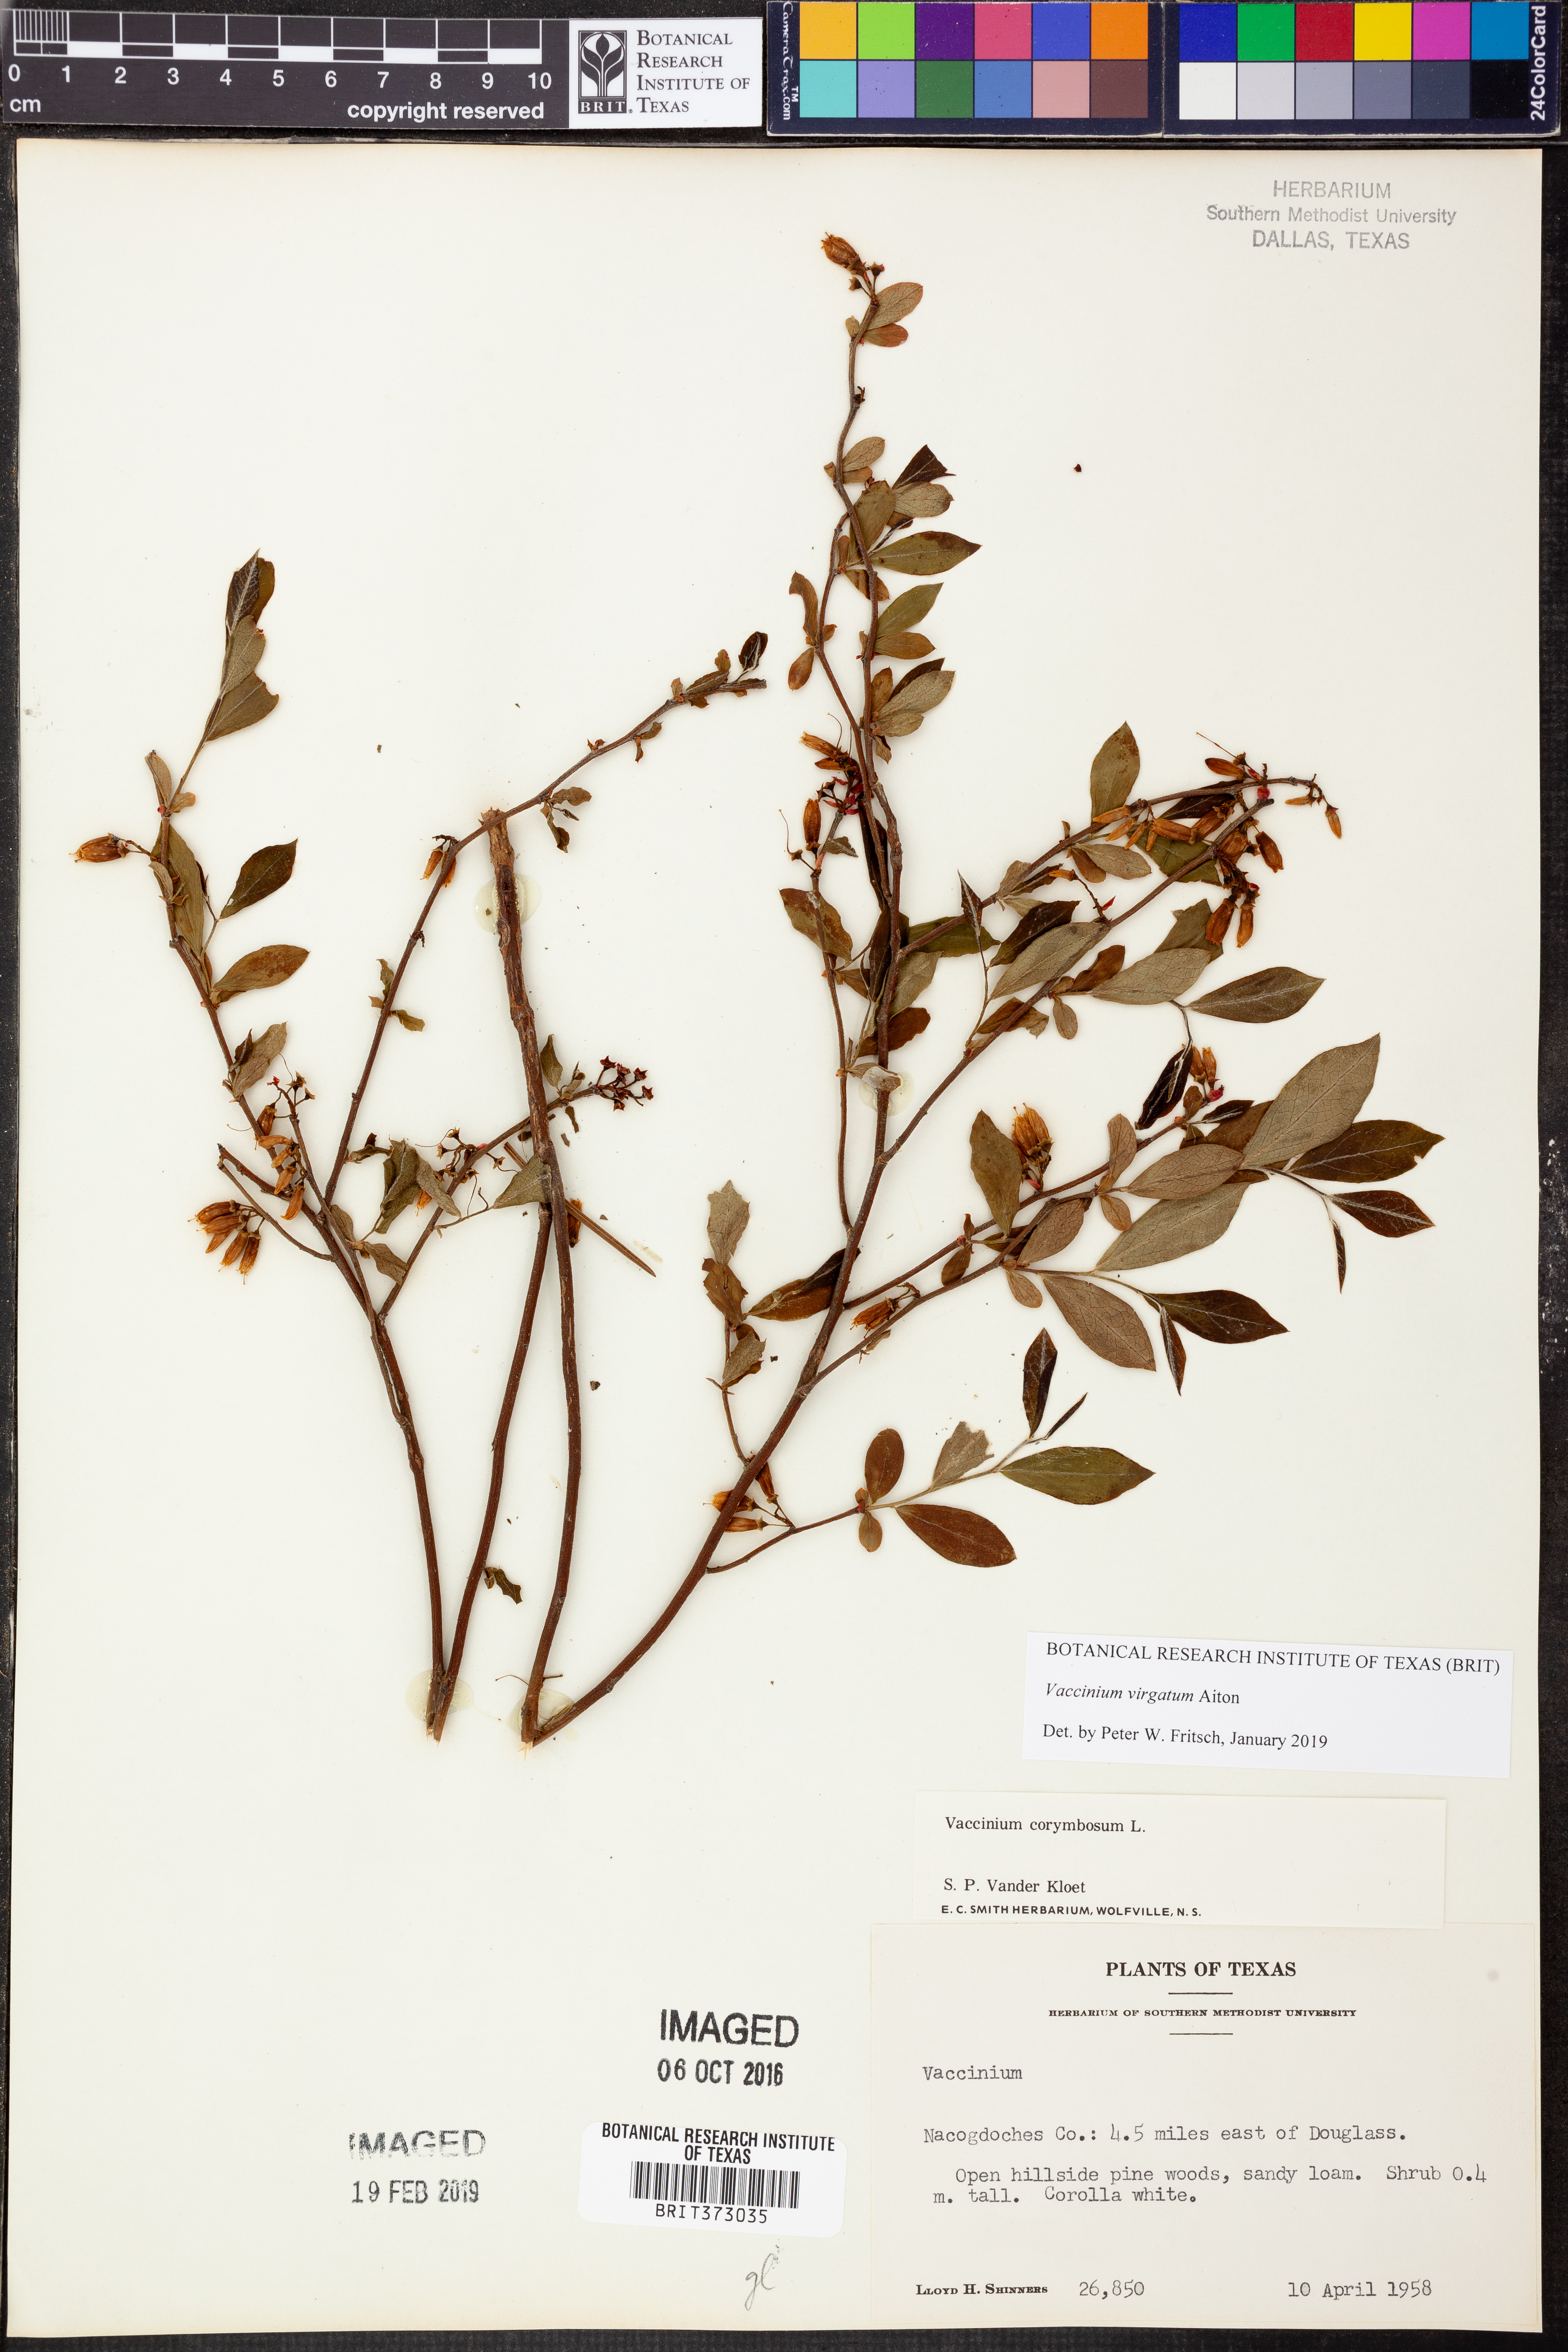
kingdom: Plantae
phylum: Tracheophyta
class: Magnoliopsida
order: Ericales
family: Ericaceae
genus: Vaccinium
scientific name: Vaccinium corymbosum
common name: Blueberry
